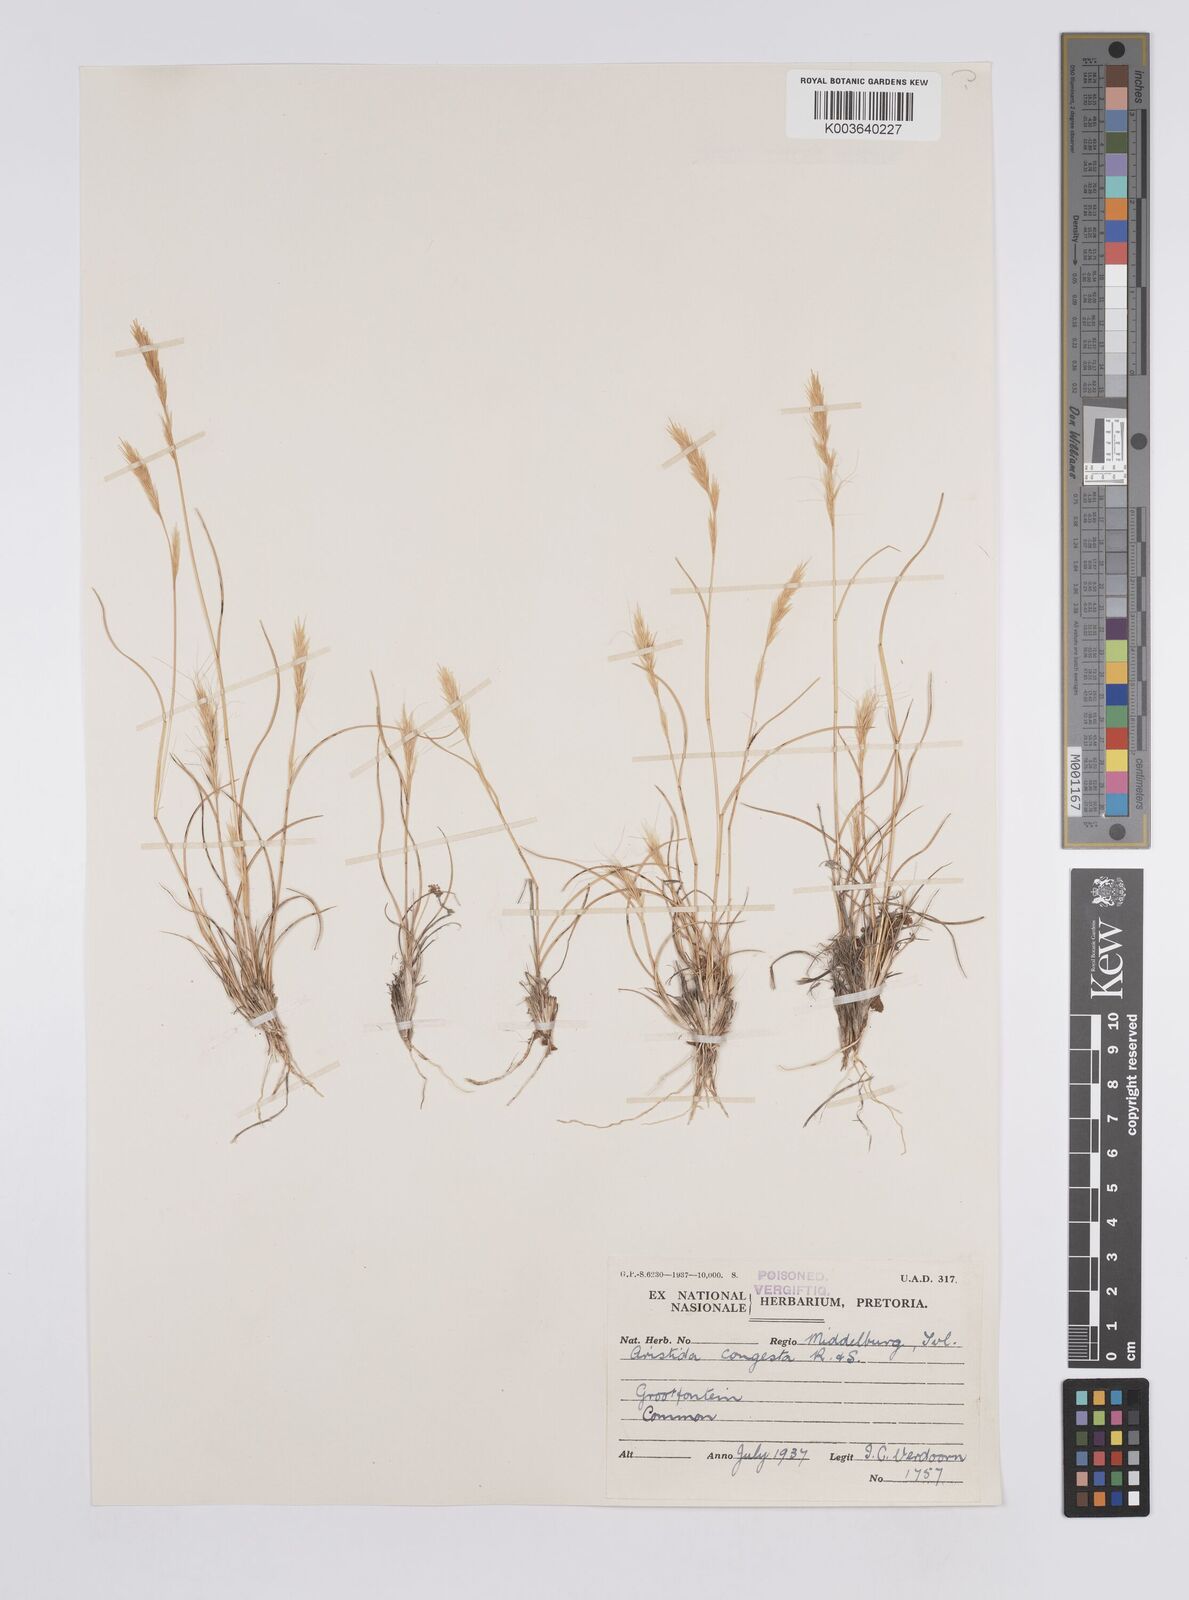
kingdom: Plantae
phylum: Tracheophyta
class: Liliopsida
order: Poales
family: Poaceae
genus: Aristida
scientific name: Aristida congesta
